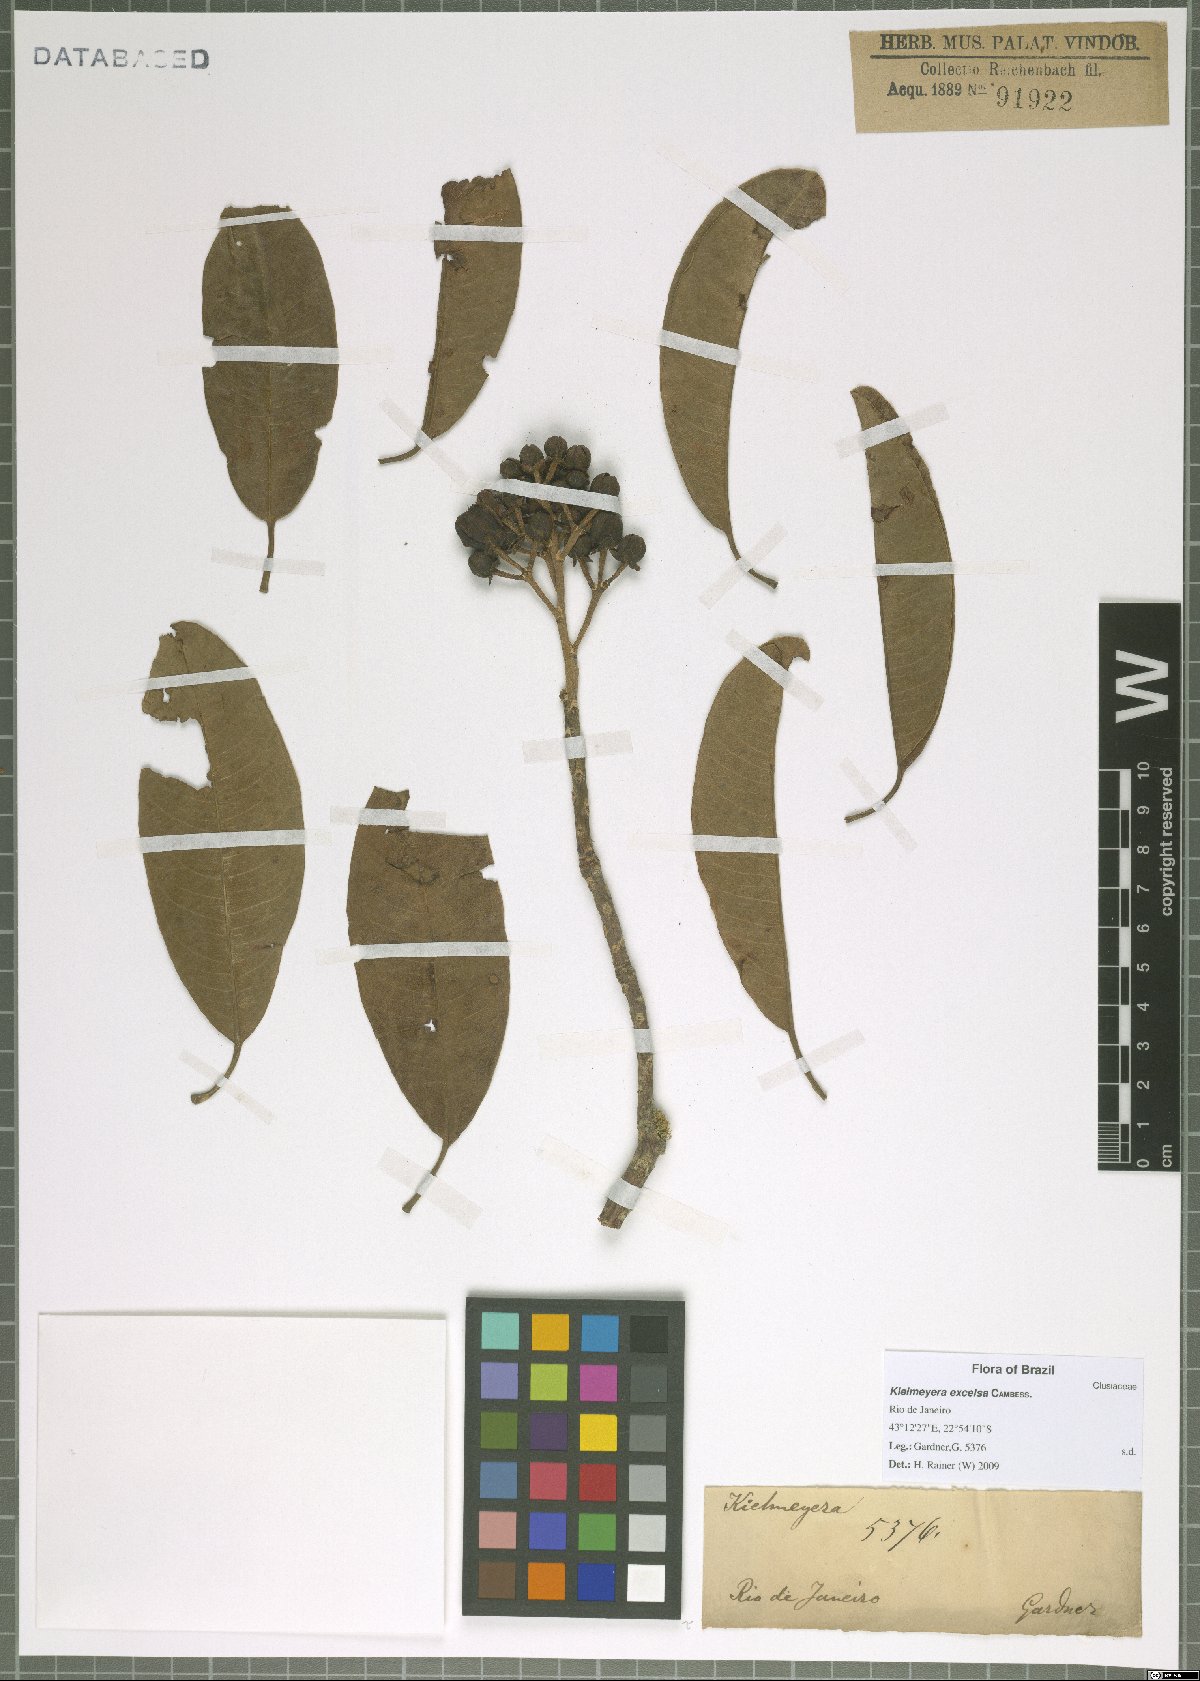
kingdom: Plantae
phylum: Tracheophyta
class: Magnoliopsida
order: Malpighiales
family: Calophyllaceae
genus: Kielmeyera
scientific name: Kielmeyera excelsa
